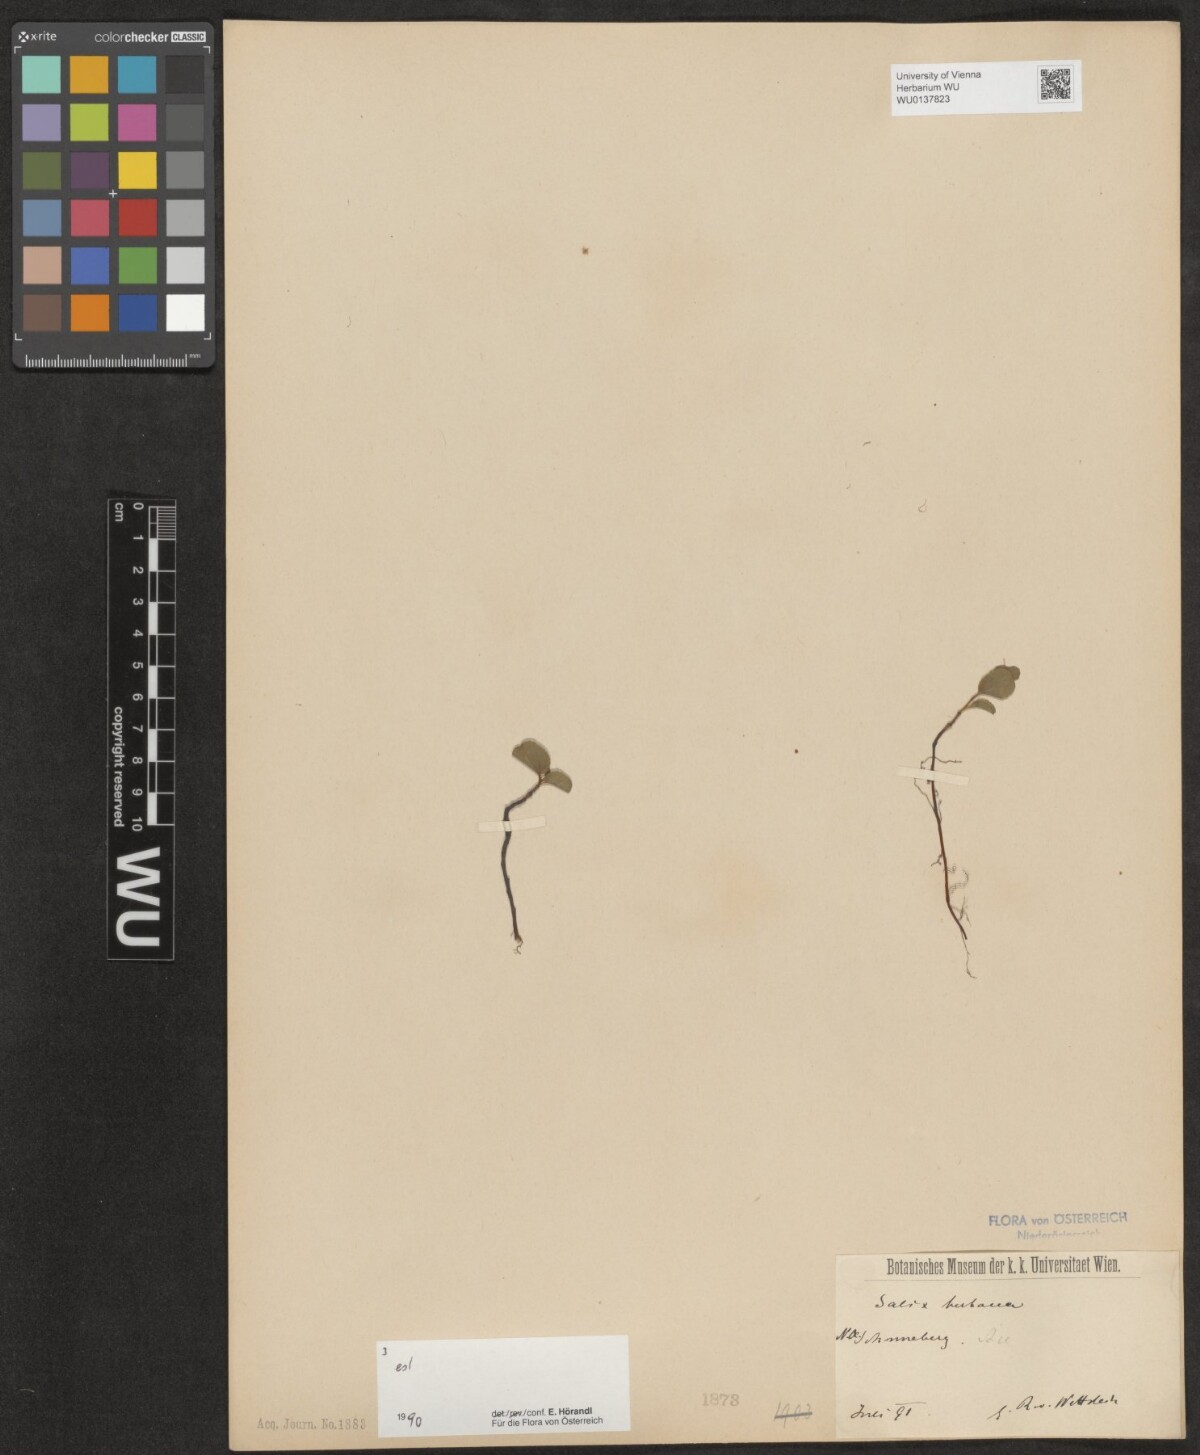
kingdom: Plantae
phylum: Tracheophyta
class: Magnoliopsida
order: Malpighiales
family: Salicaceae
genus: Salix
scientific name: Salix herbacea
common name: Dwarf willow
